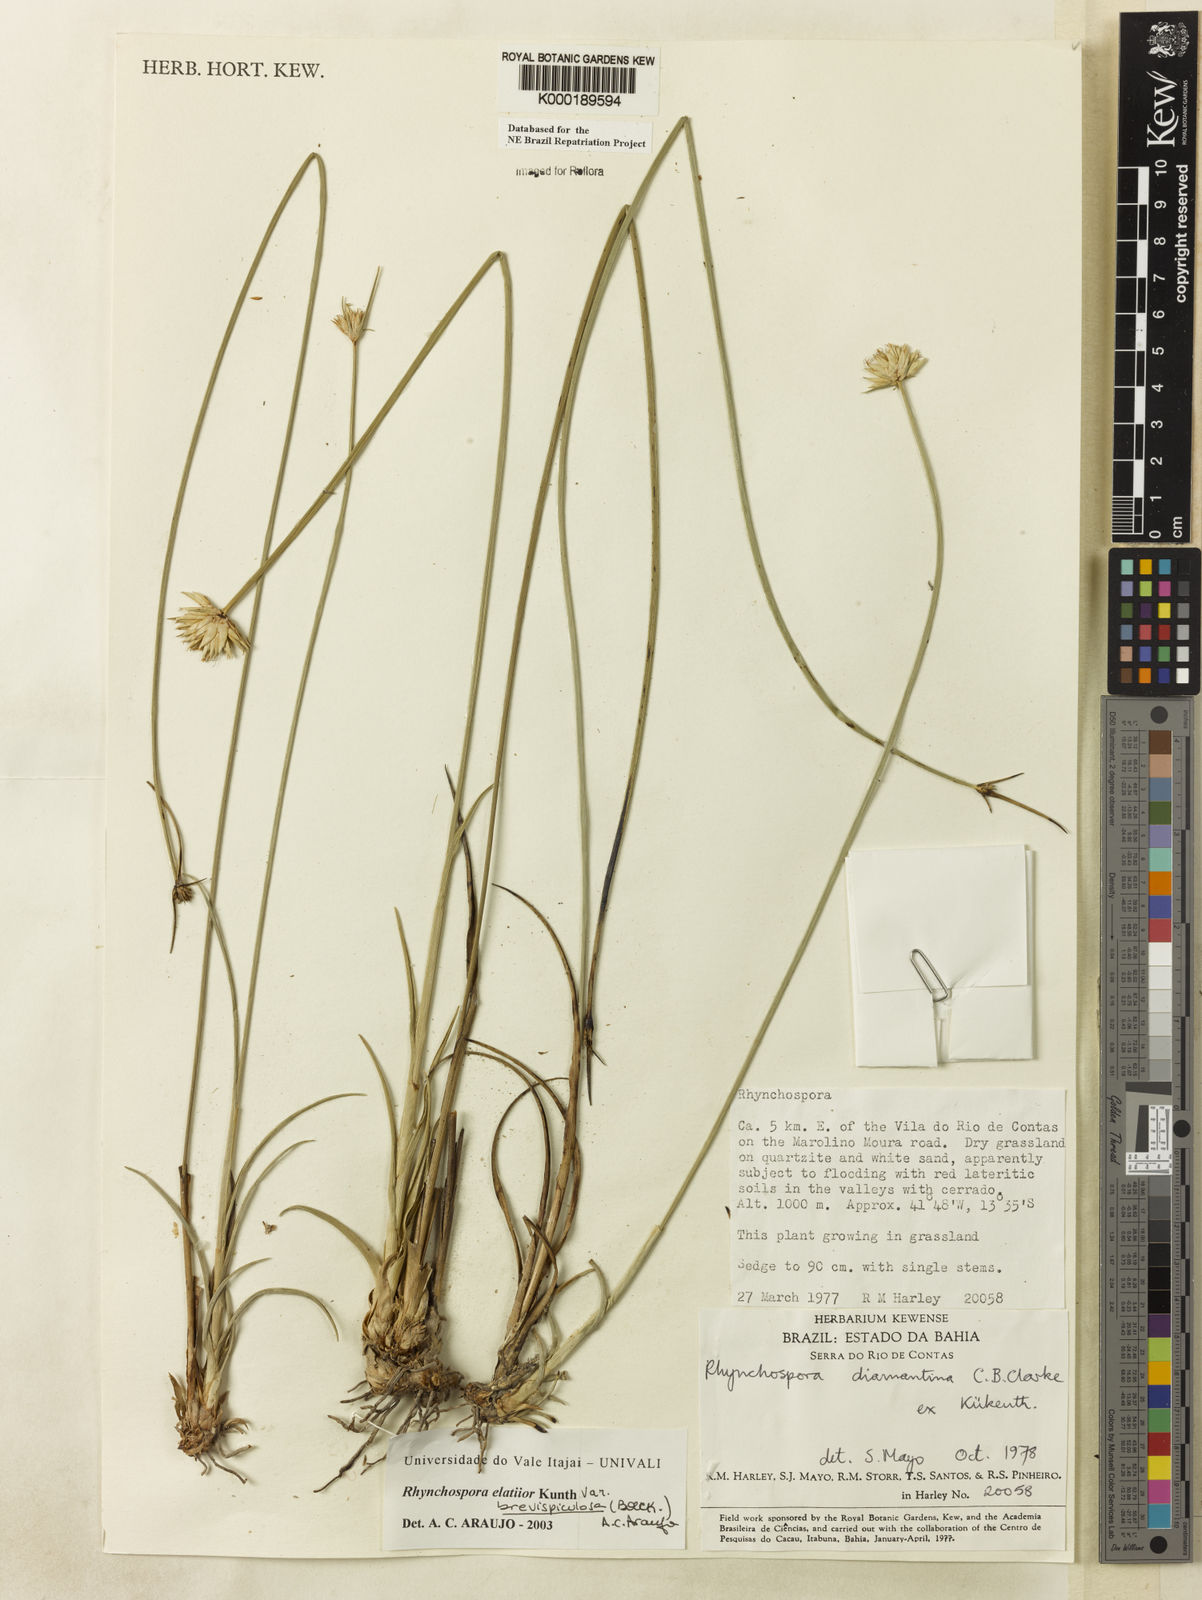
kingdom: Plantae
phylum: Tracheophyta
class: Liliopsida
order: Poales
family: Cyperaceae
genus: Rhynchospora
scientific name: Rhynchospora elatior
